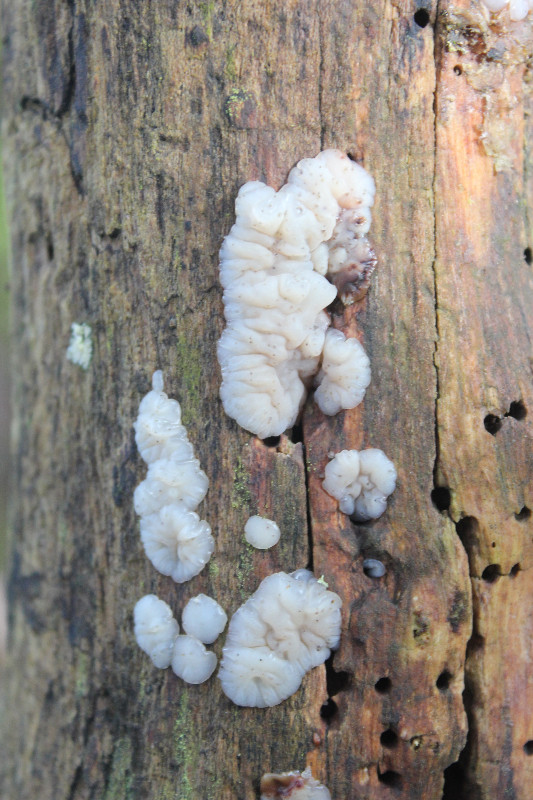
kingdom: Fungi
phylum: Basidiomycota
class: Agaricomycetes
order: Auriculariales
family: Auriculariaceae
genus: Exidia
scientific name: Exidia thuretiana
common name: hvidlig bævretop
